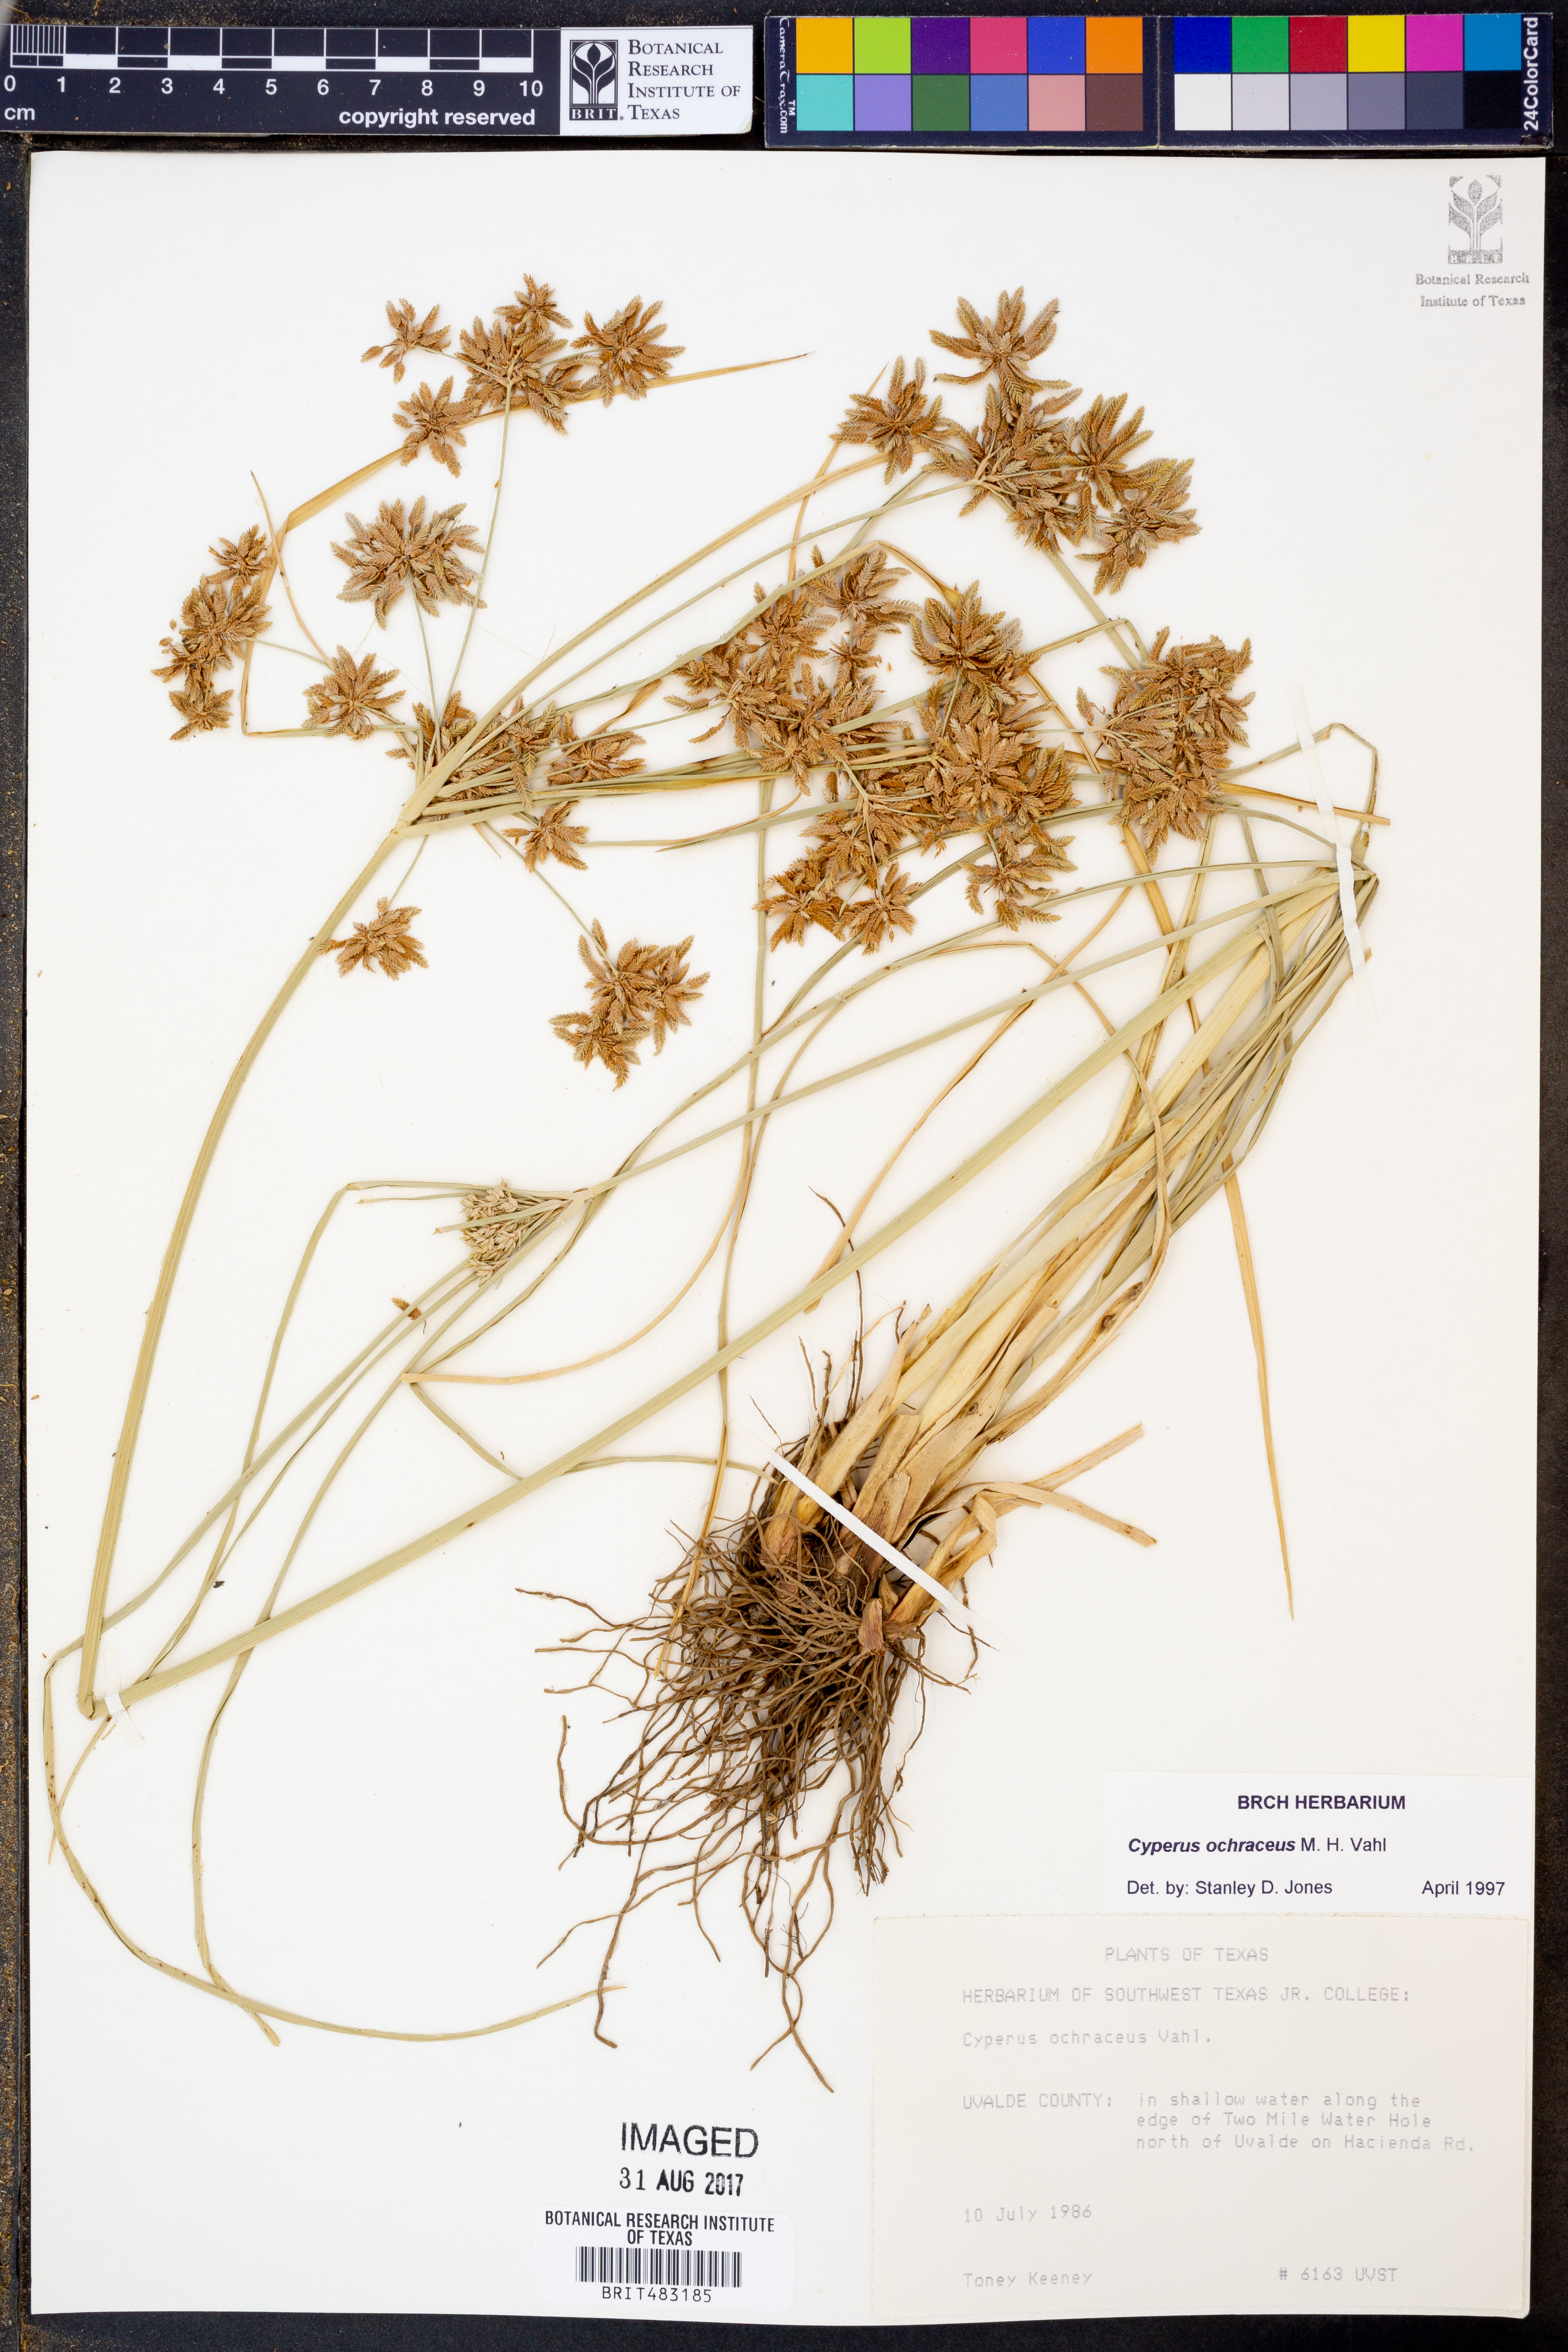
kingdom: Plantae
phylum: Tracheophyta
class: Liliopsida
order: Poales
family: Cyperaceae
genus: Cyperus
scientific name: Cyperus ochraceus
